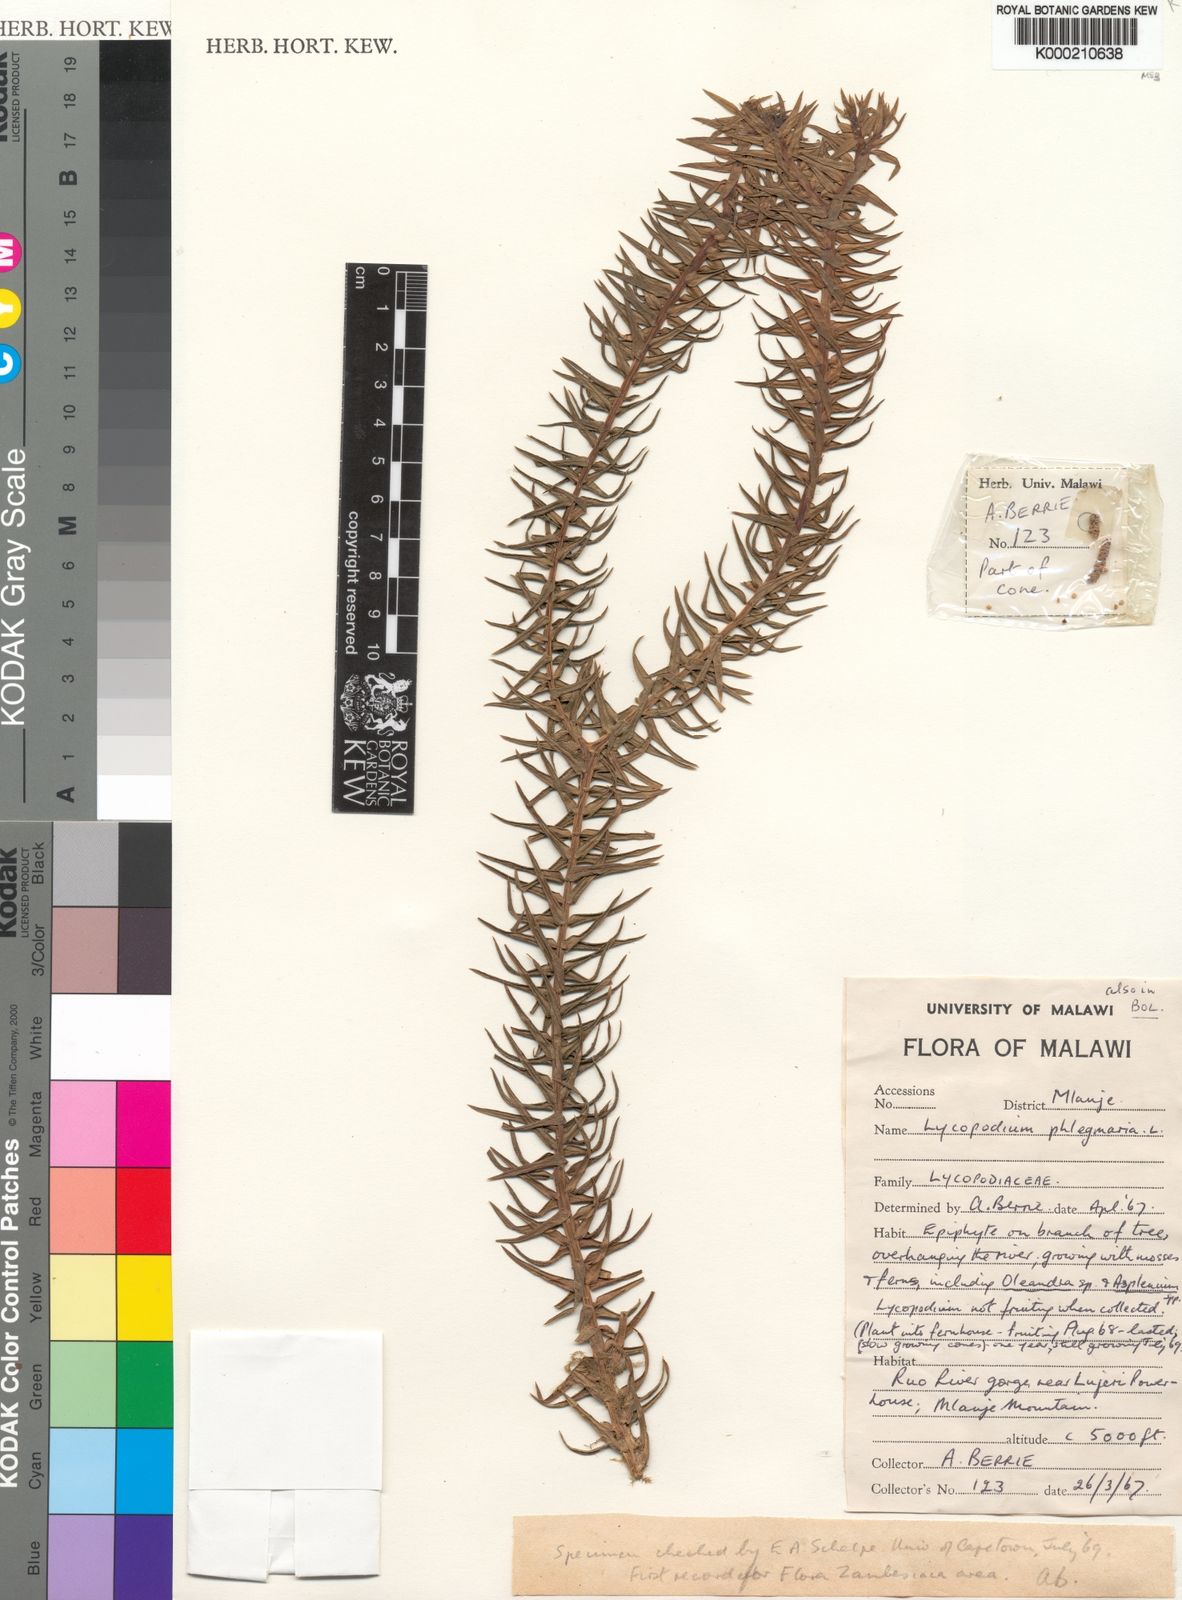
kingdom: Plantae
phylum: Tracheophyta
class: Lycopodiopsida
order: Lycopodiales
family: Lycopodiaceae
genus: Phlegmariurus
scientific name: Phlegmariurus phlegmaria
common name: Coarse tassel-fern
